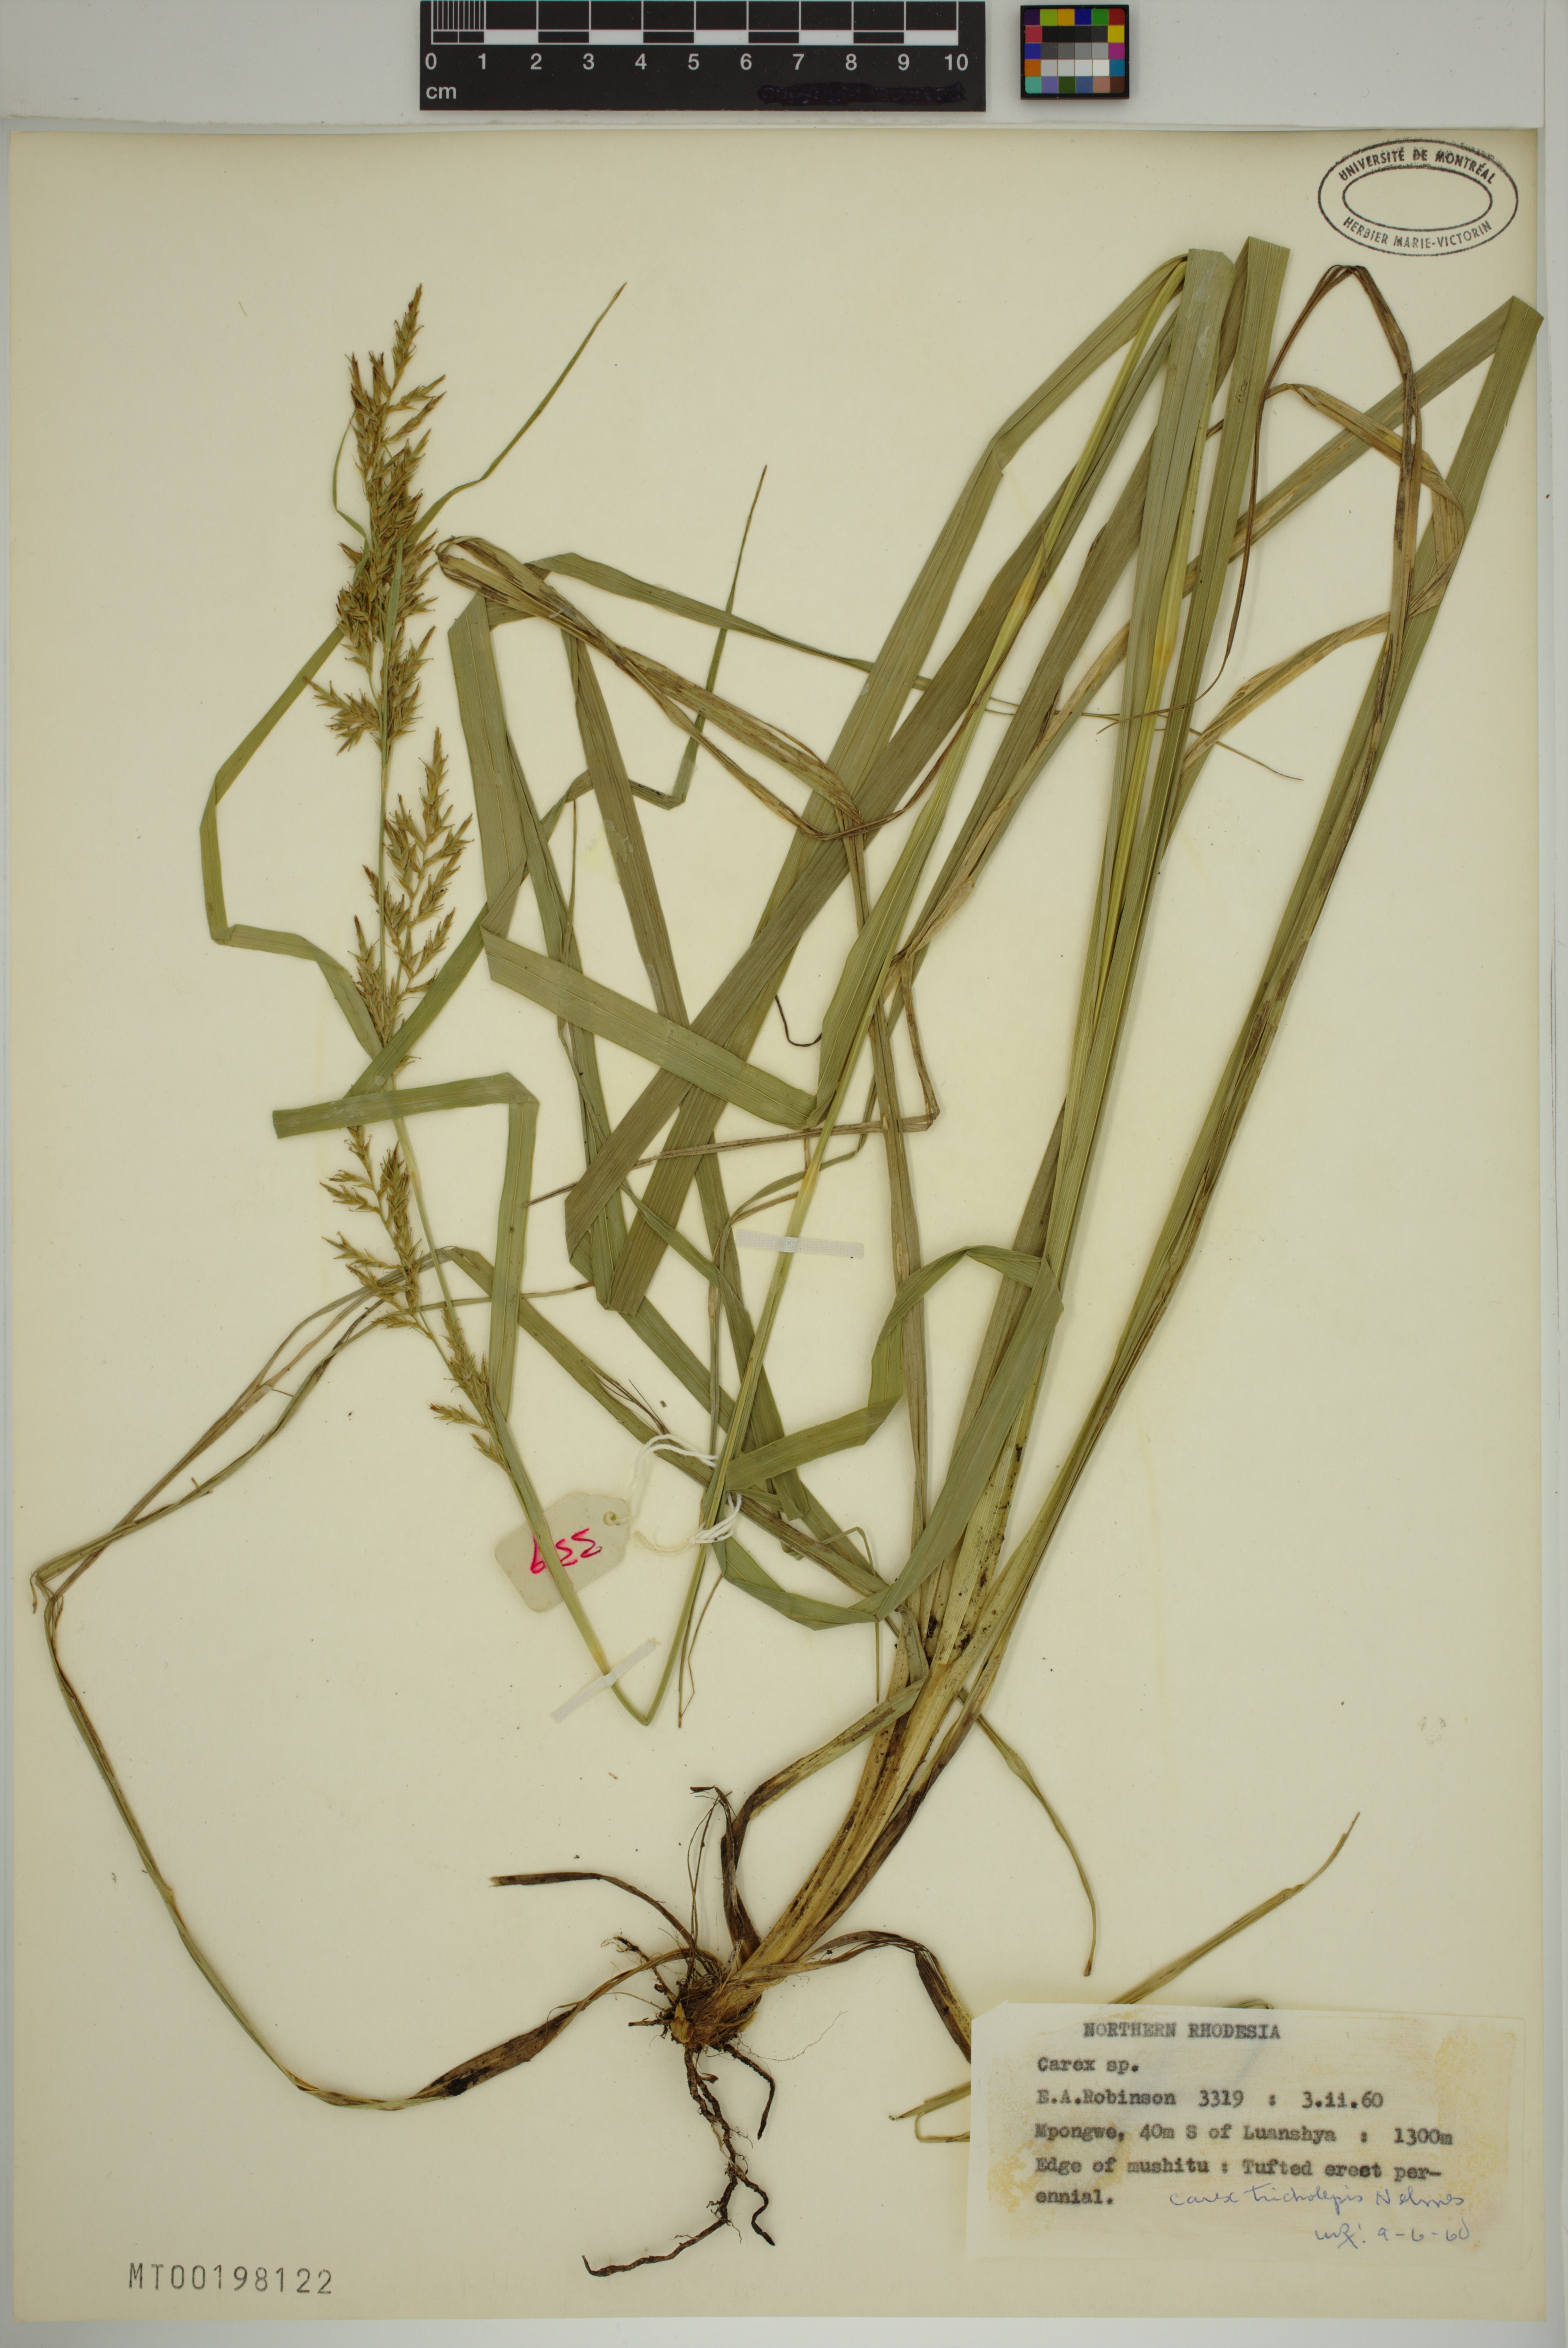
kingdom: Plantae
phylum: Tracheophyta
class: Liliopsida
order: Poales
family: Cyperaceae
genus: Carex
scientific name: Carex tricholepis
